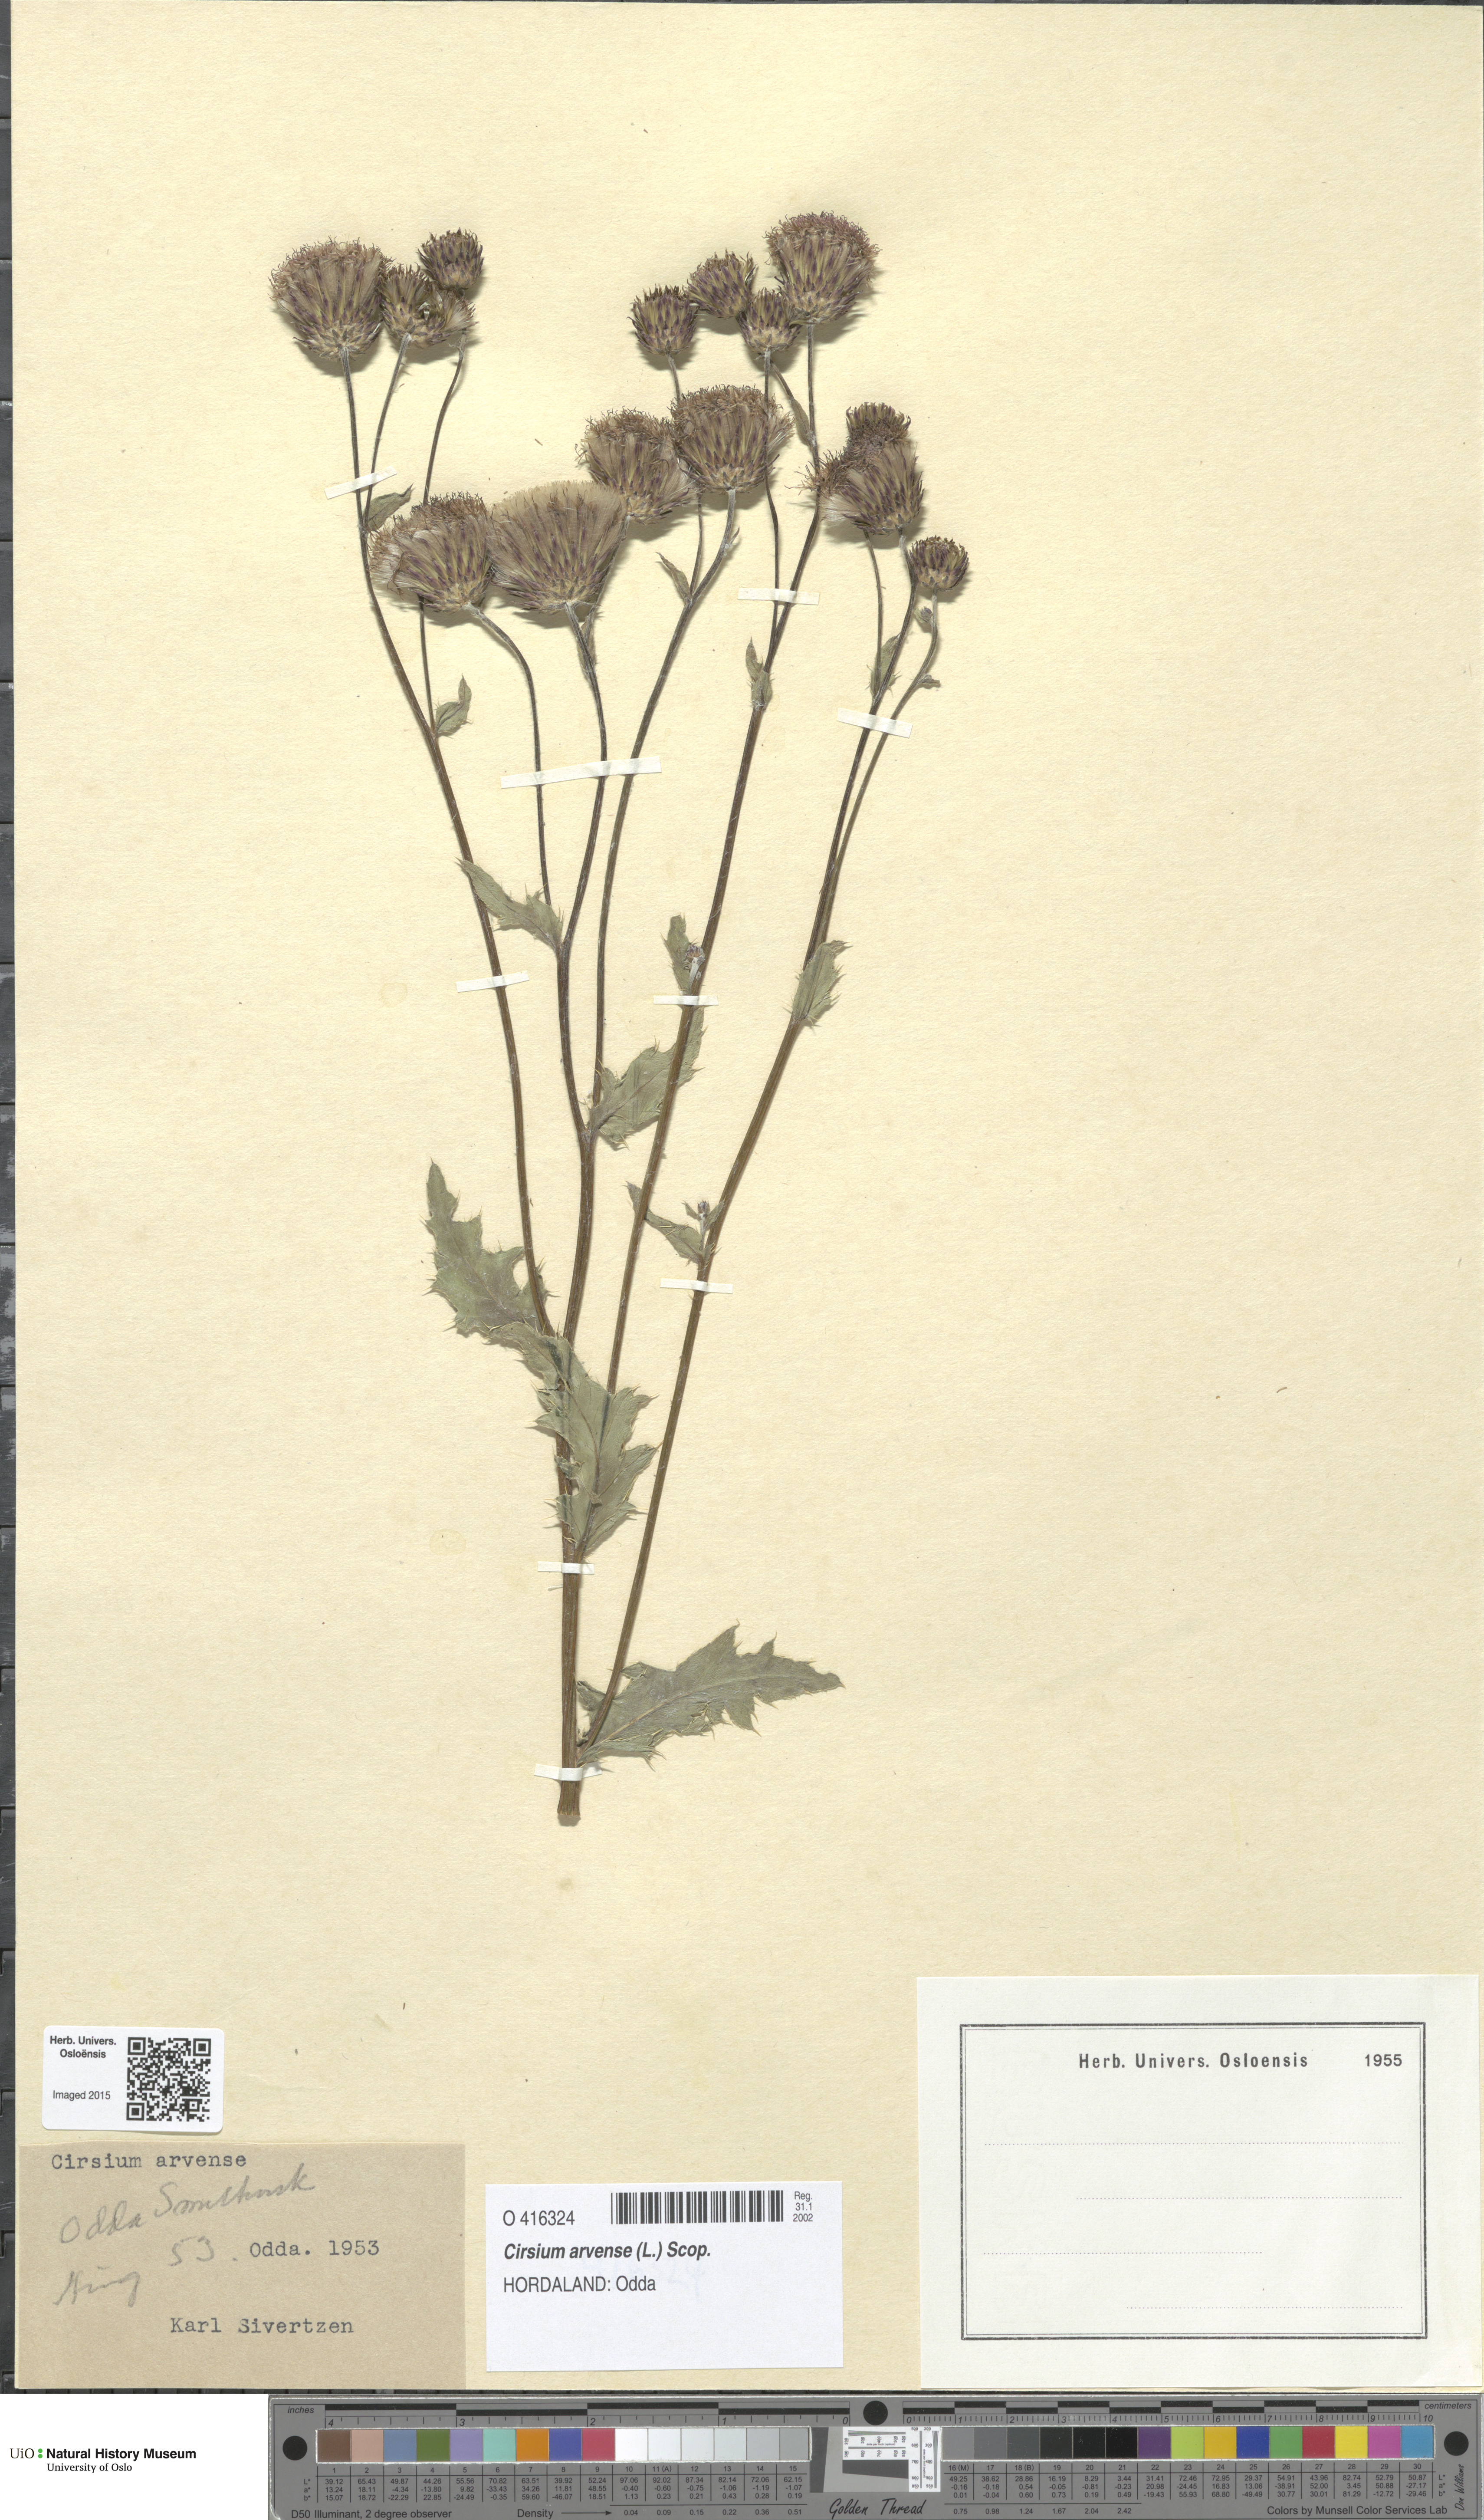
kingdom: Plantae
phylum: Tracheophyta
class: Magnoliopsida
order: Asterales
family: Asteraceae
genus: Cirsium
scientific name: Cirsium arvense
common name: Creeping thistle
